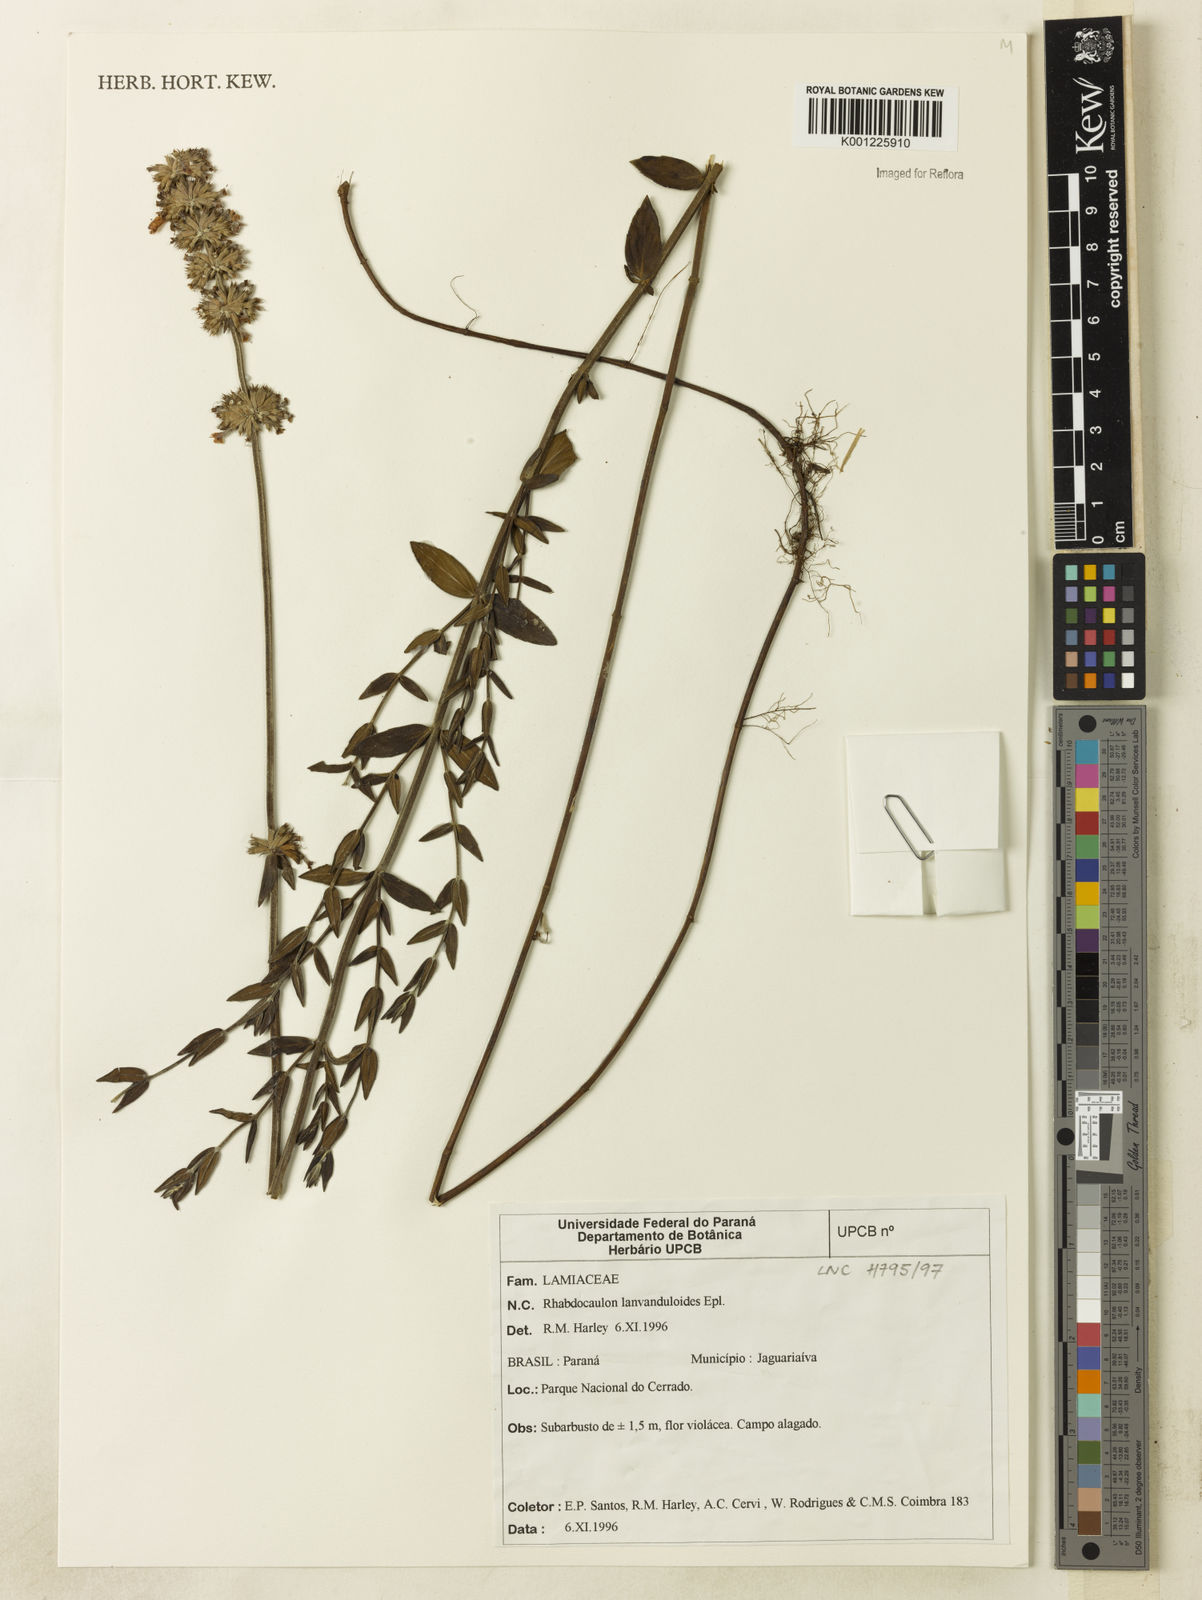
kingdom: Plantae
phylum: Tracheophyta
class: Magnoliopsida
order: Lamiales
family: Lamiaceae
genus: Rhabdocaulon
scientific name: Rhabdocaulon lavanduloides
